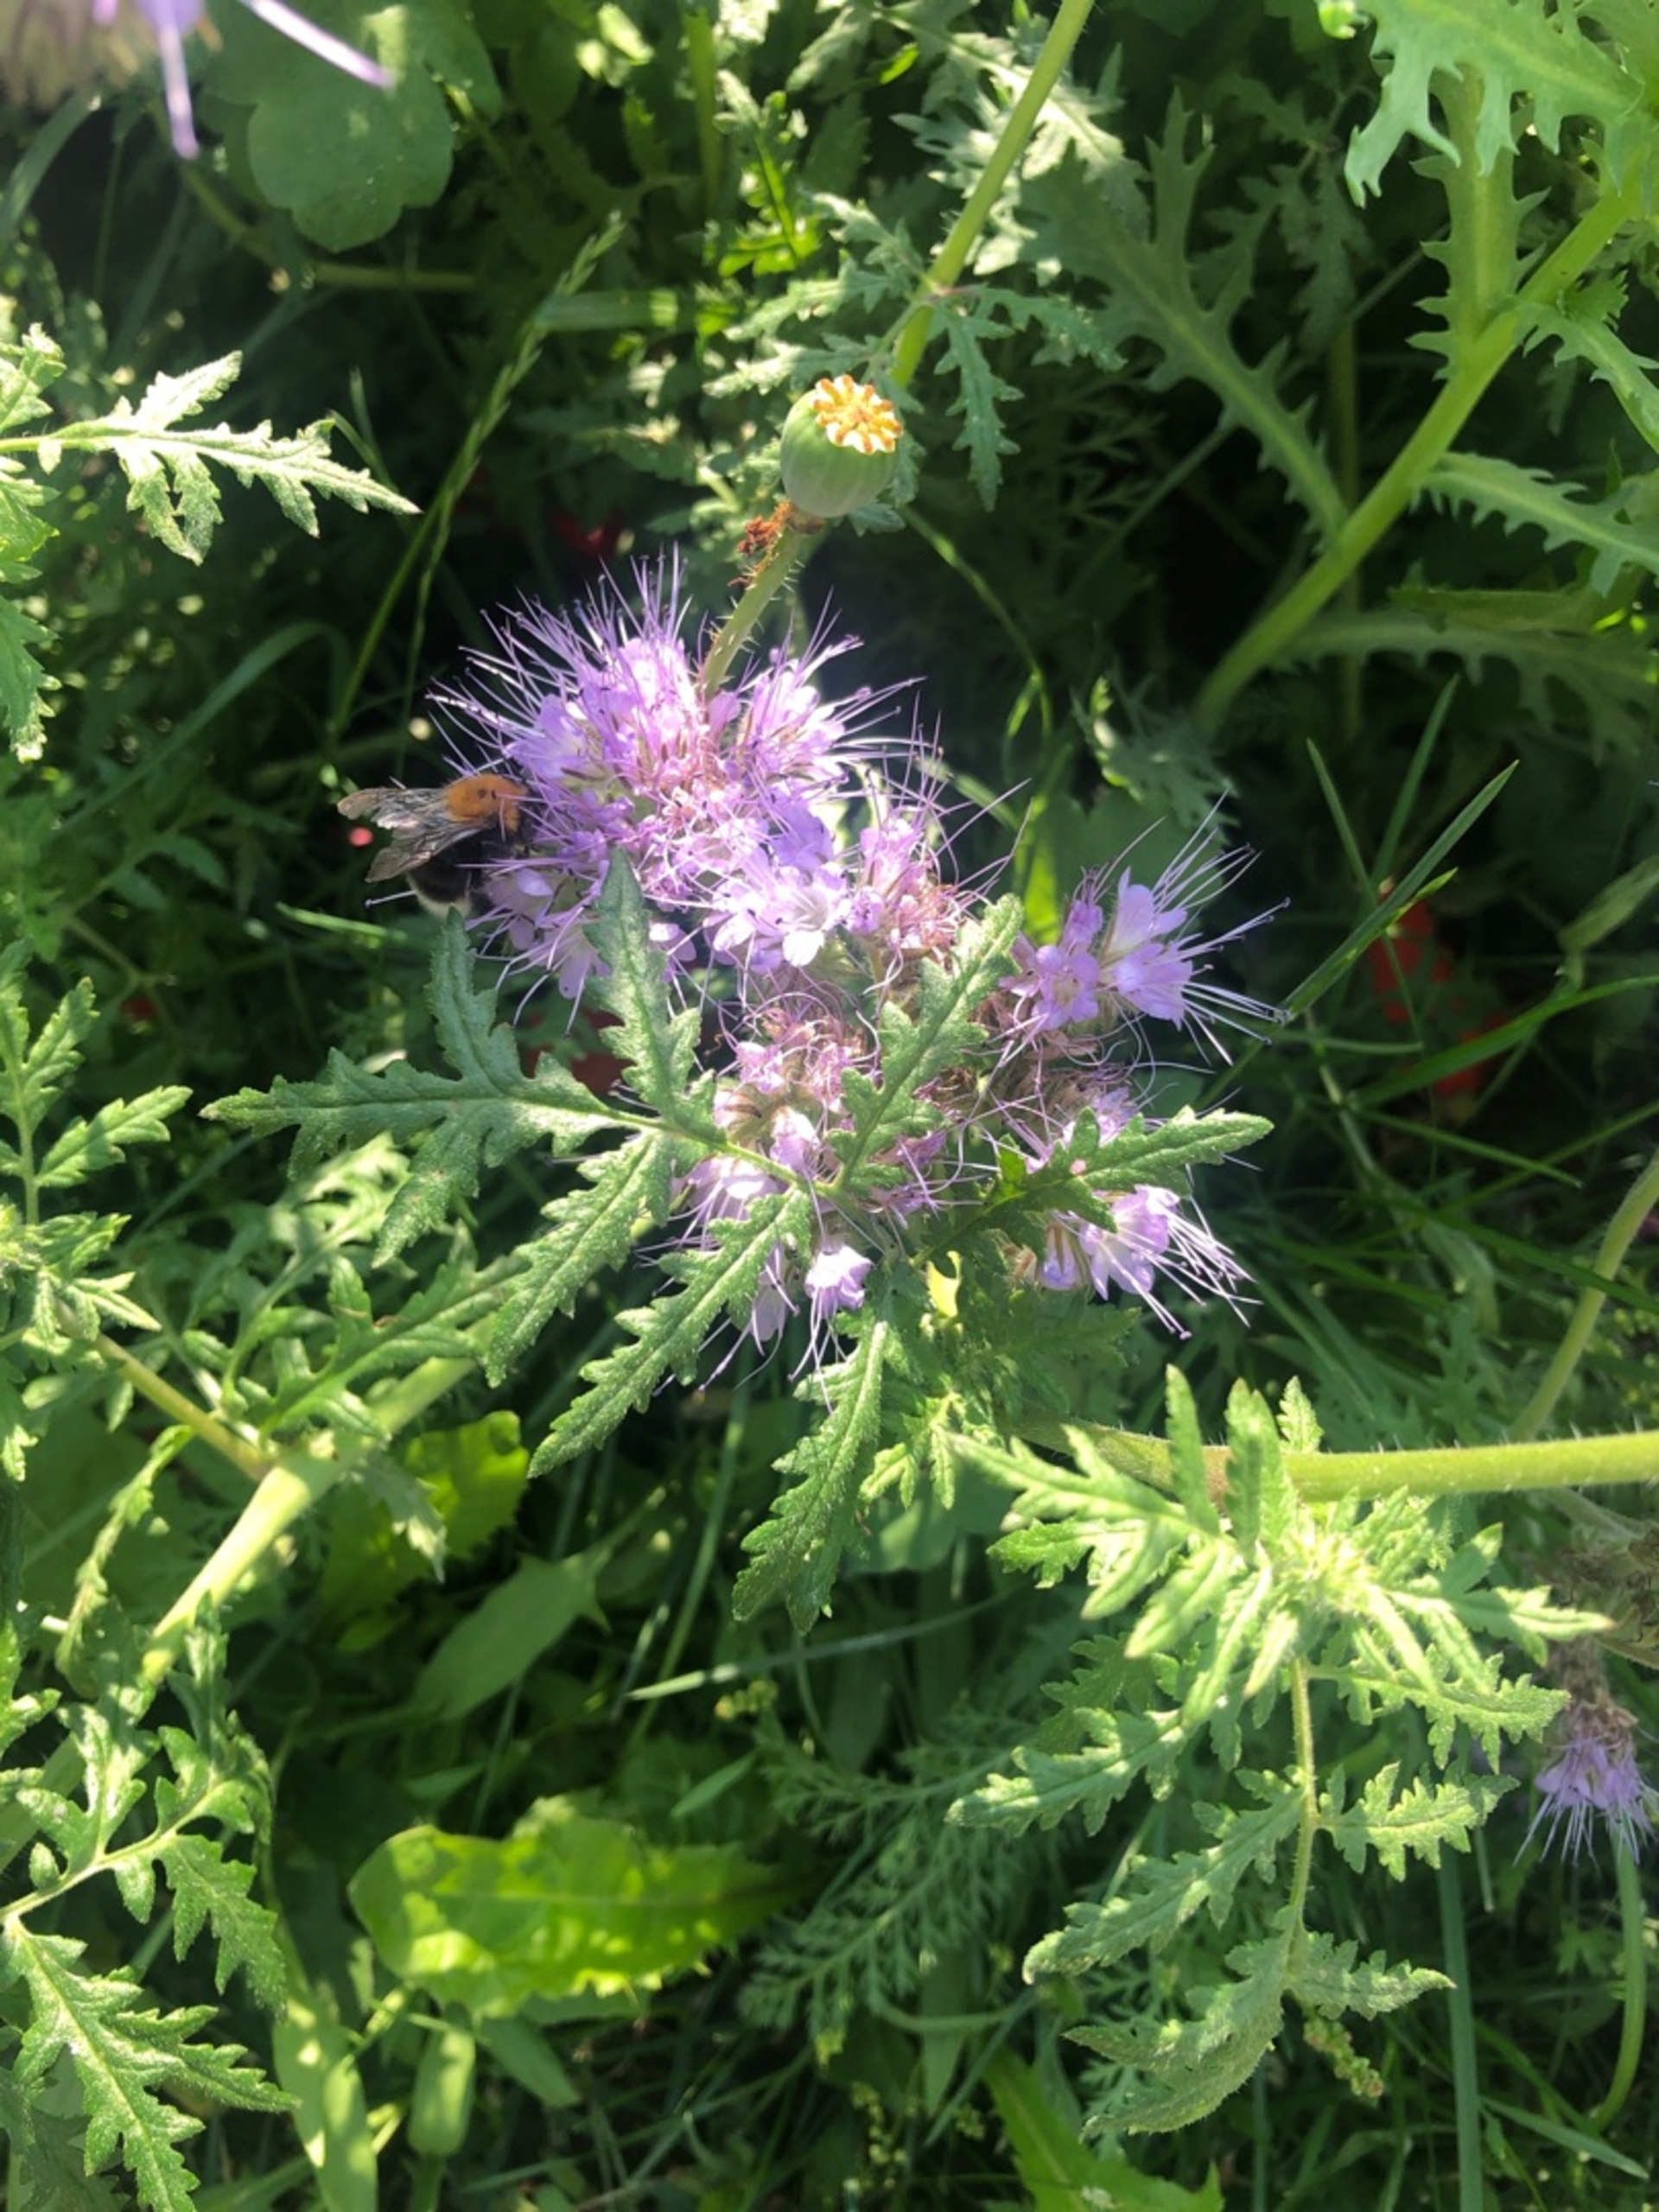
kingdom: Animalia
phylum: Arthropoda
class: Insecta
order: Hymenoptera
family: Apidae
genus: Bombus
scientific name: Bombus hypnorum
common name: Hushumle
